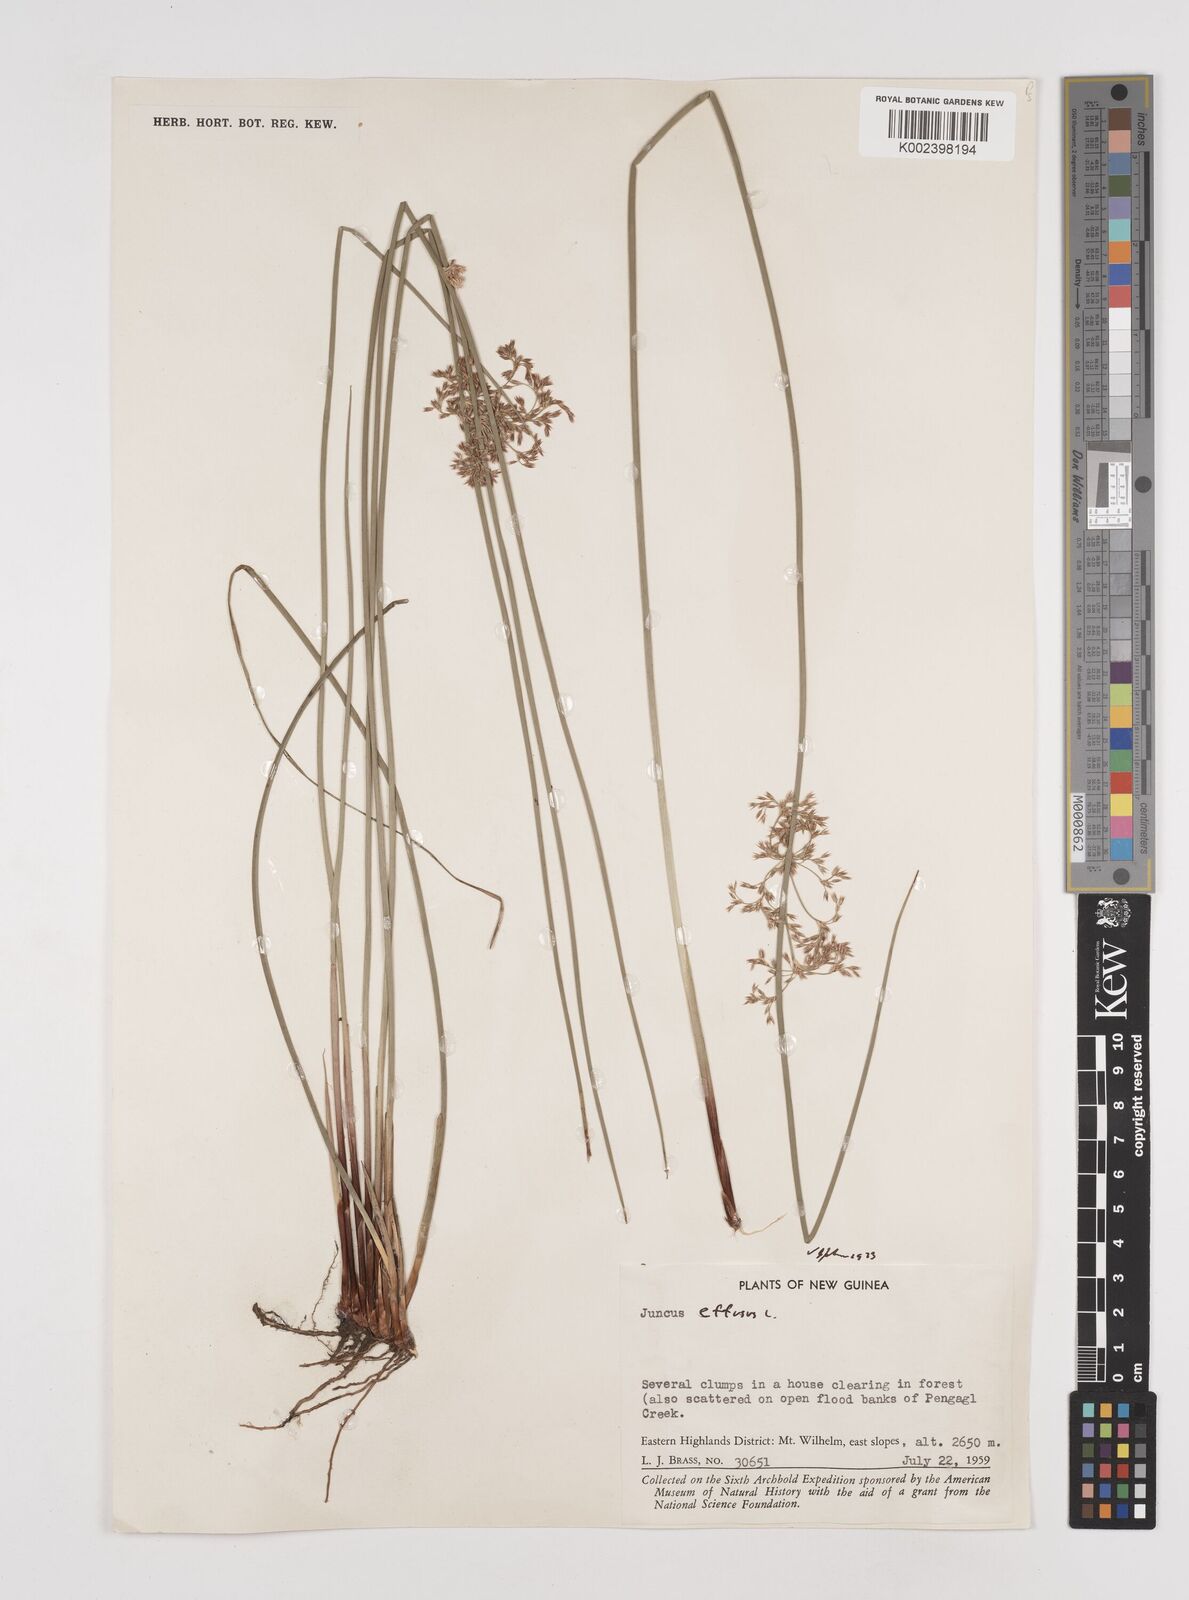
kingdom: Plantae
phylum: Tracheophyta
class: Liliopsida
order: Poales
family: Juncaceae
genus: Juncus
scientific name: Juncus decipiens
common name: Lamp rush
